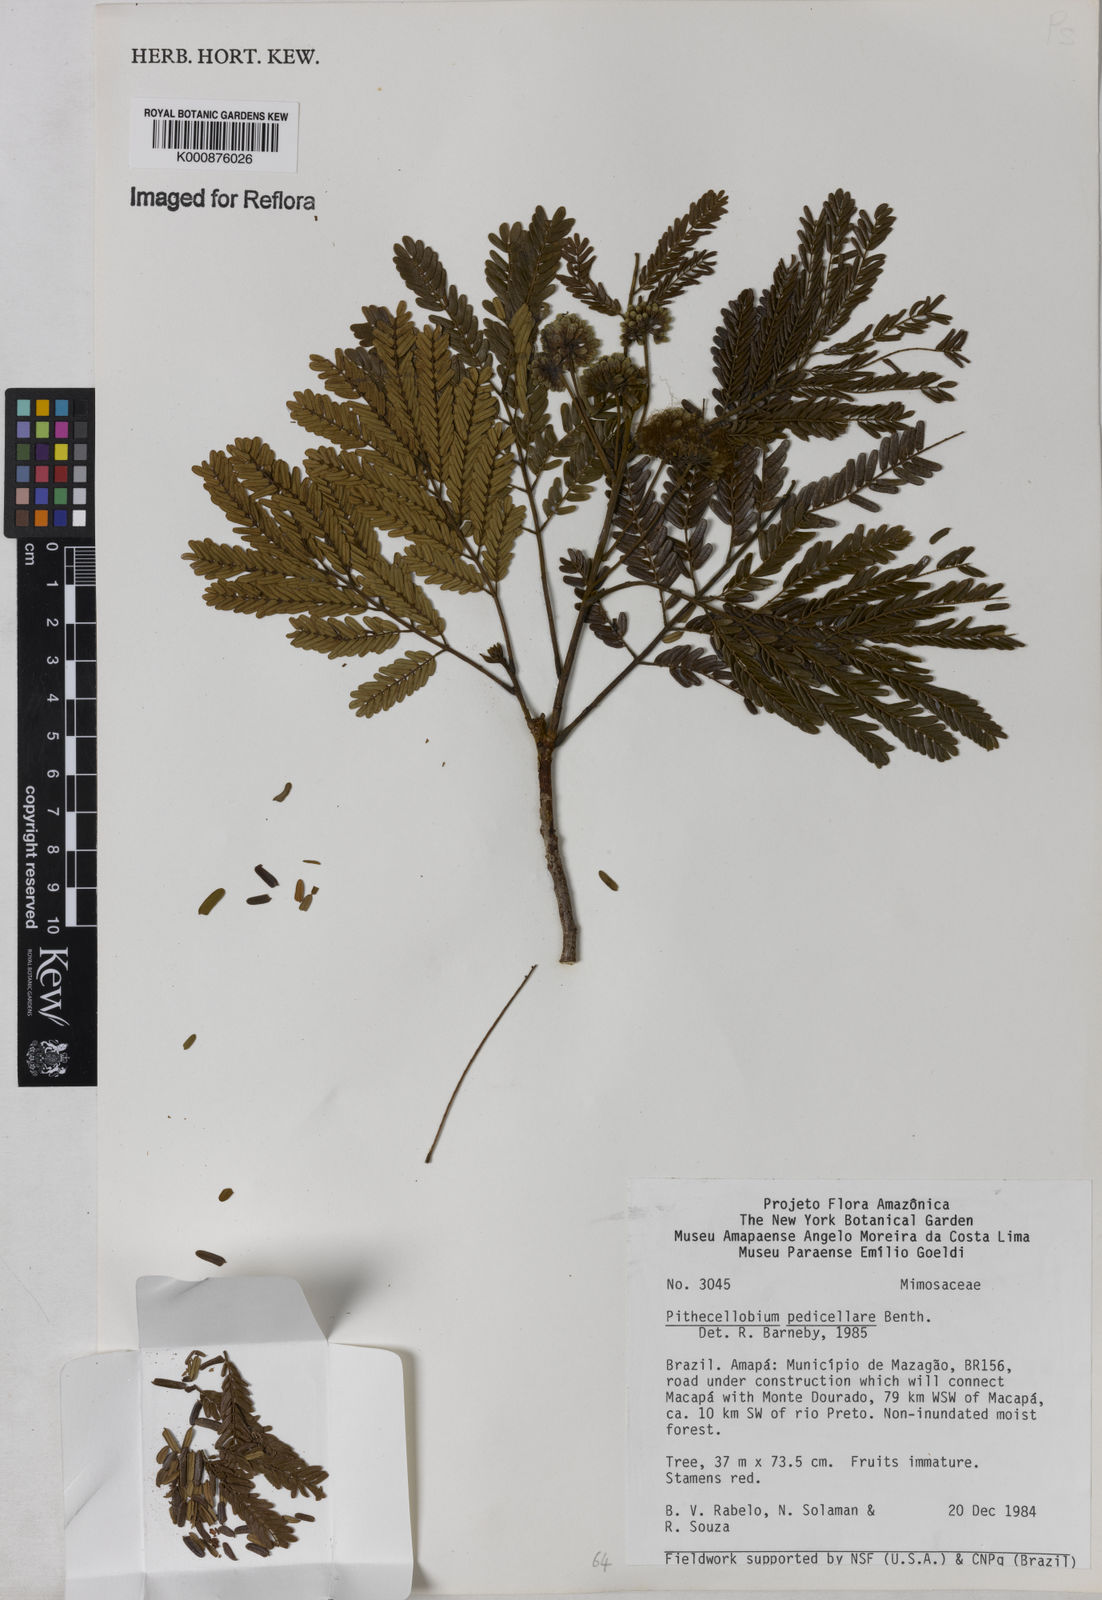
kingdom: Plantae
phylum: Tracheophyta
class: Magnoliopsida
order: Fabales
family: Fabaceae
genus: Balizia
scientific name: Balizia pedicellaris
